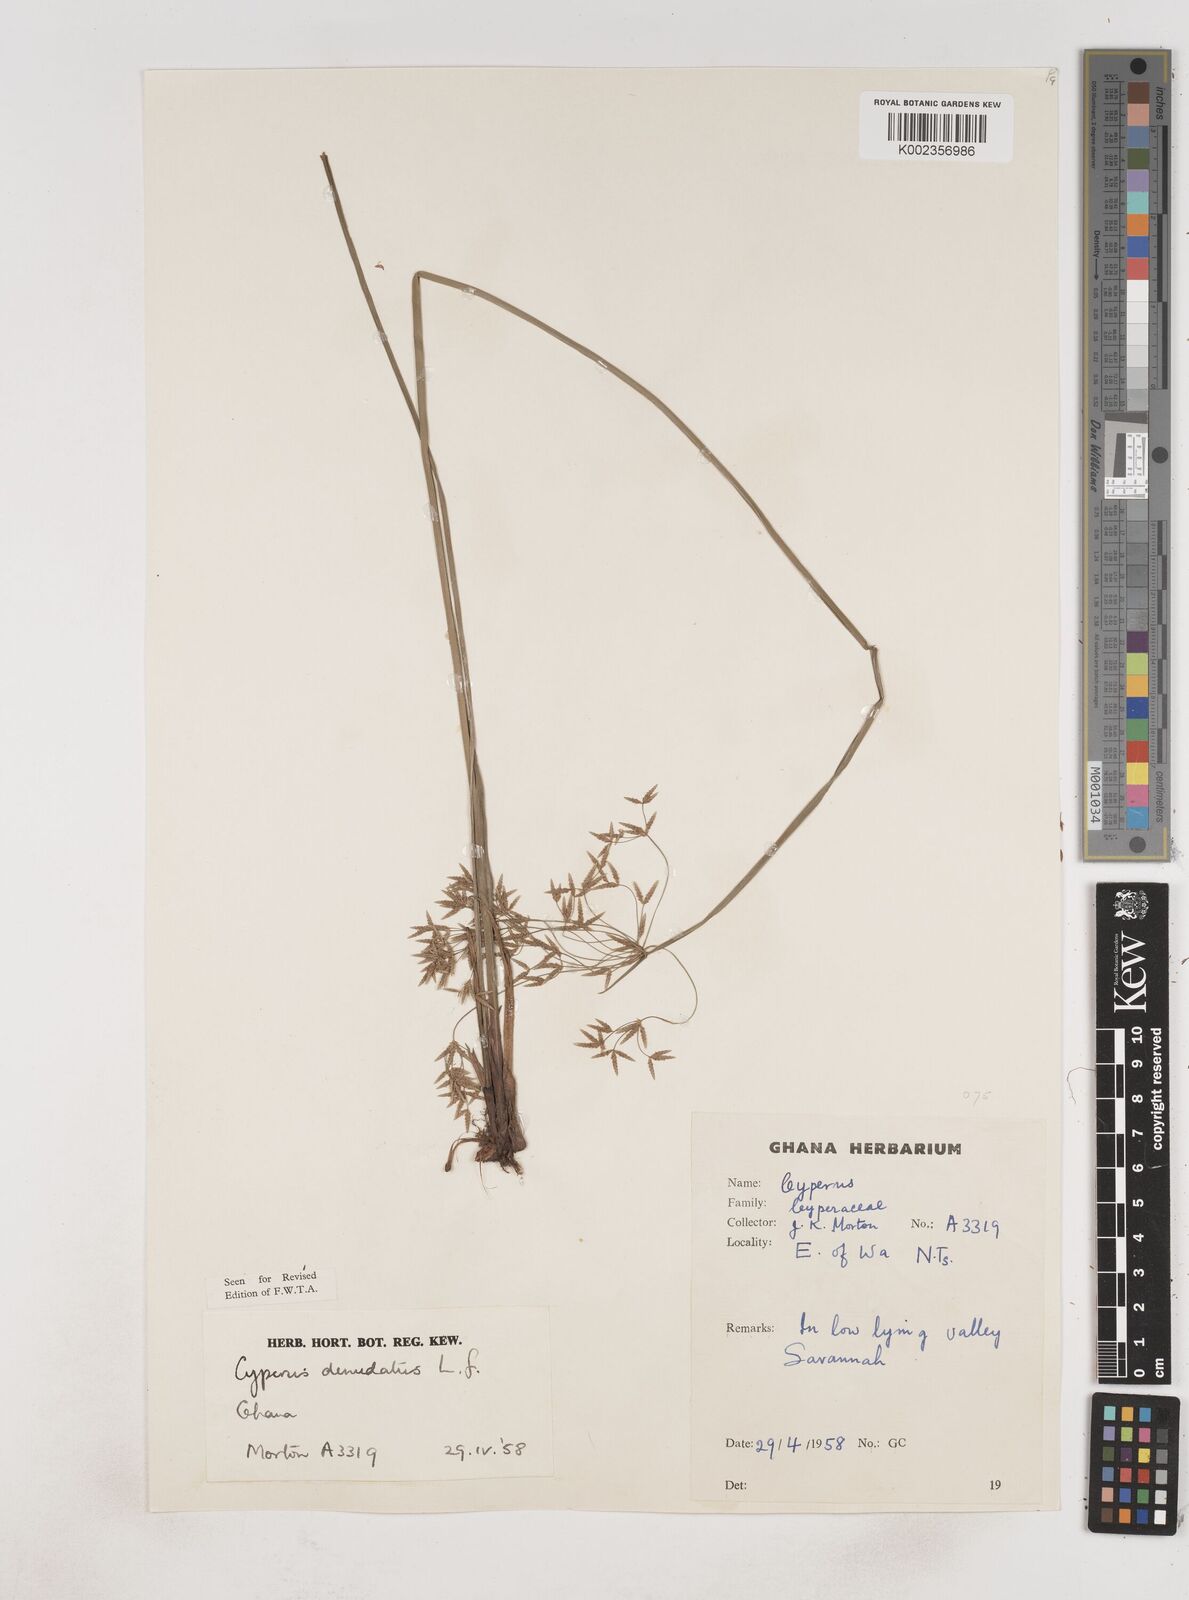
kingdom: Plantae
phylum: Tracheophyta
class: Liliopsida
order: Poales
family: Cyperaceae
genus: Cyperus
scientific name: Cyperus denudatus
